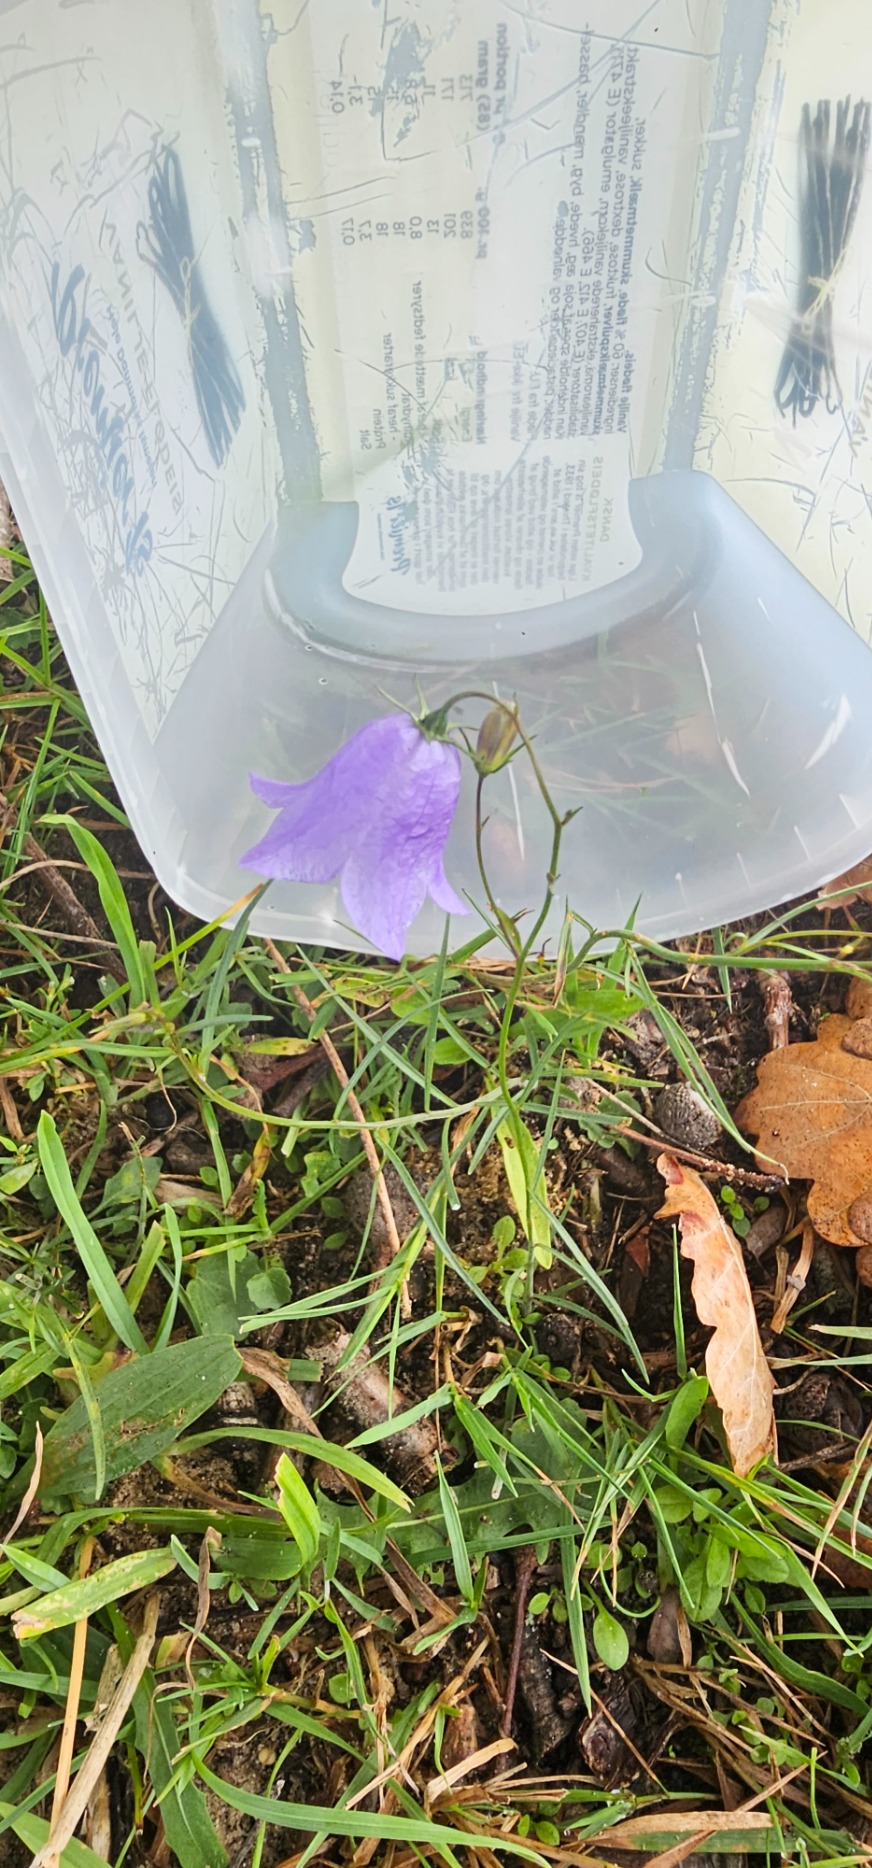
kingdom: Plantae
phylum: Tracheophyta
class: Magnoliopsida
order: Asterales
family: Campanulaceae
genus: Campanula
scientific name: Campanula rotundifolia
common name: Liden klokke
